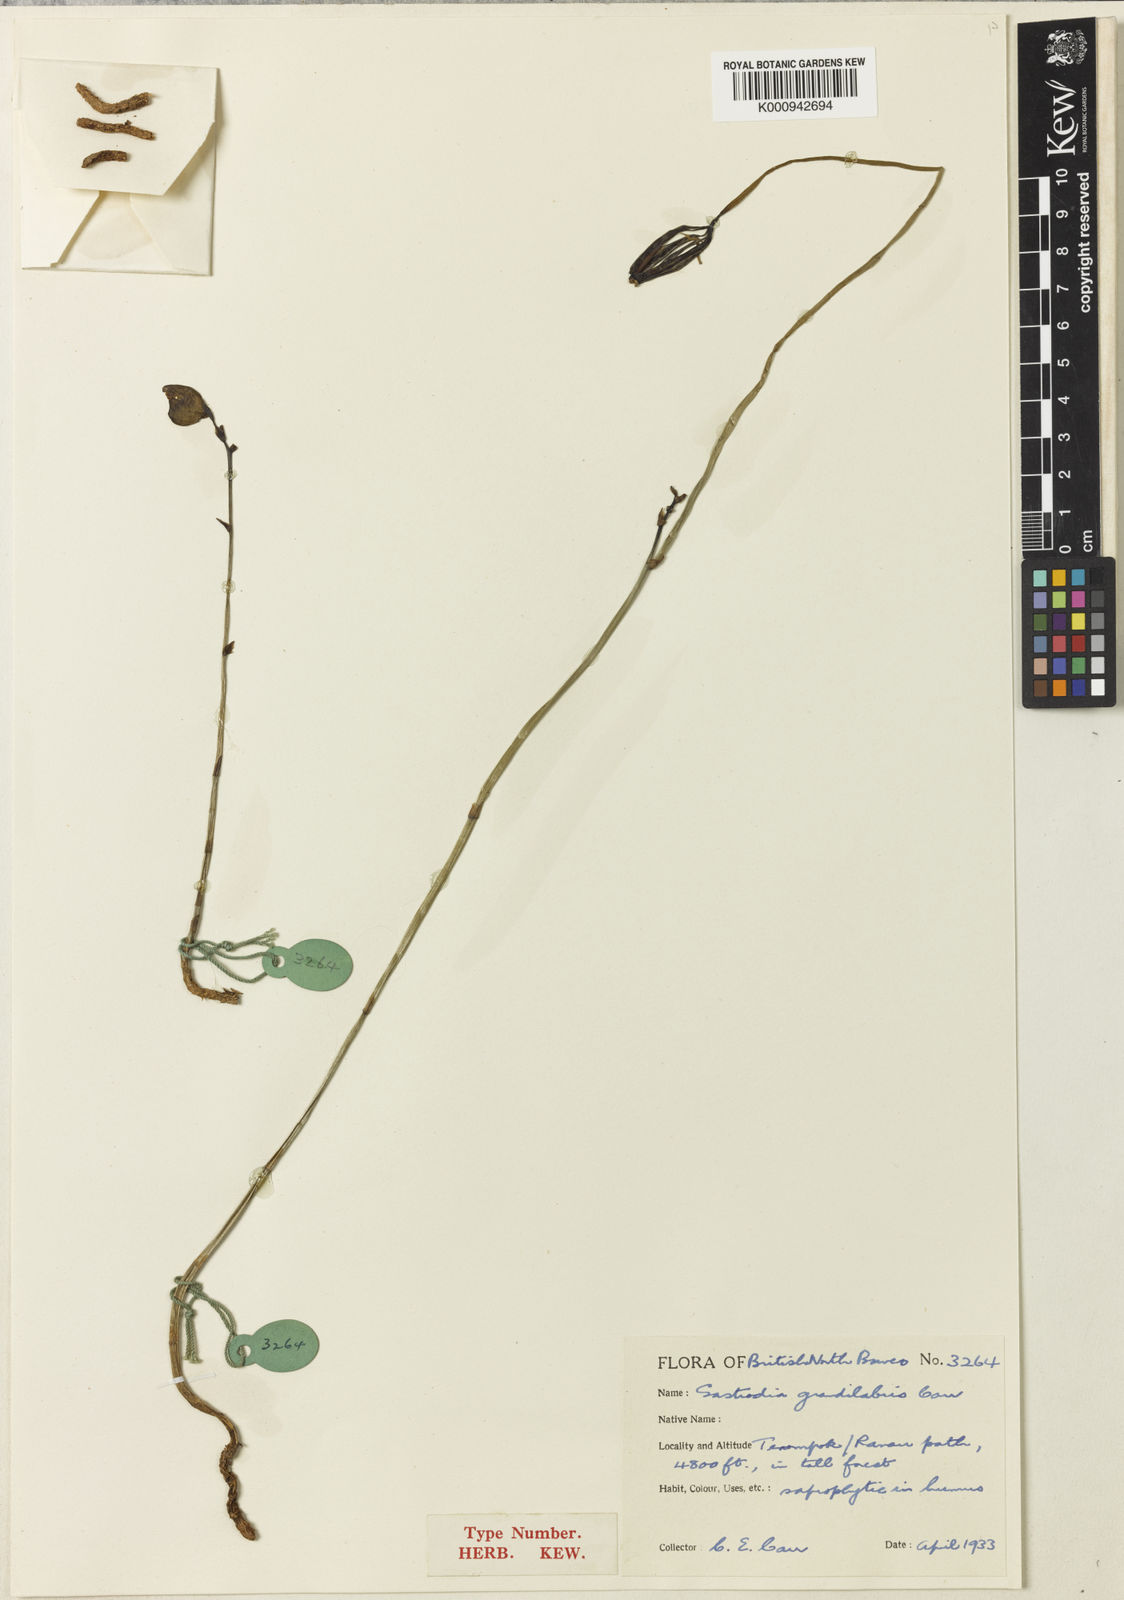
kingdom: Plantae
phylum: Tracheophyta
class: Liliopsida
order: Asparagales
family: Orchidaceae
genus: Gastrodia
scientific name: Gastrodia grandilabris
